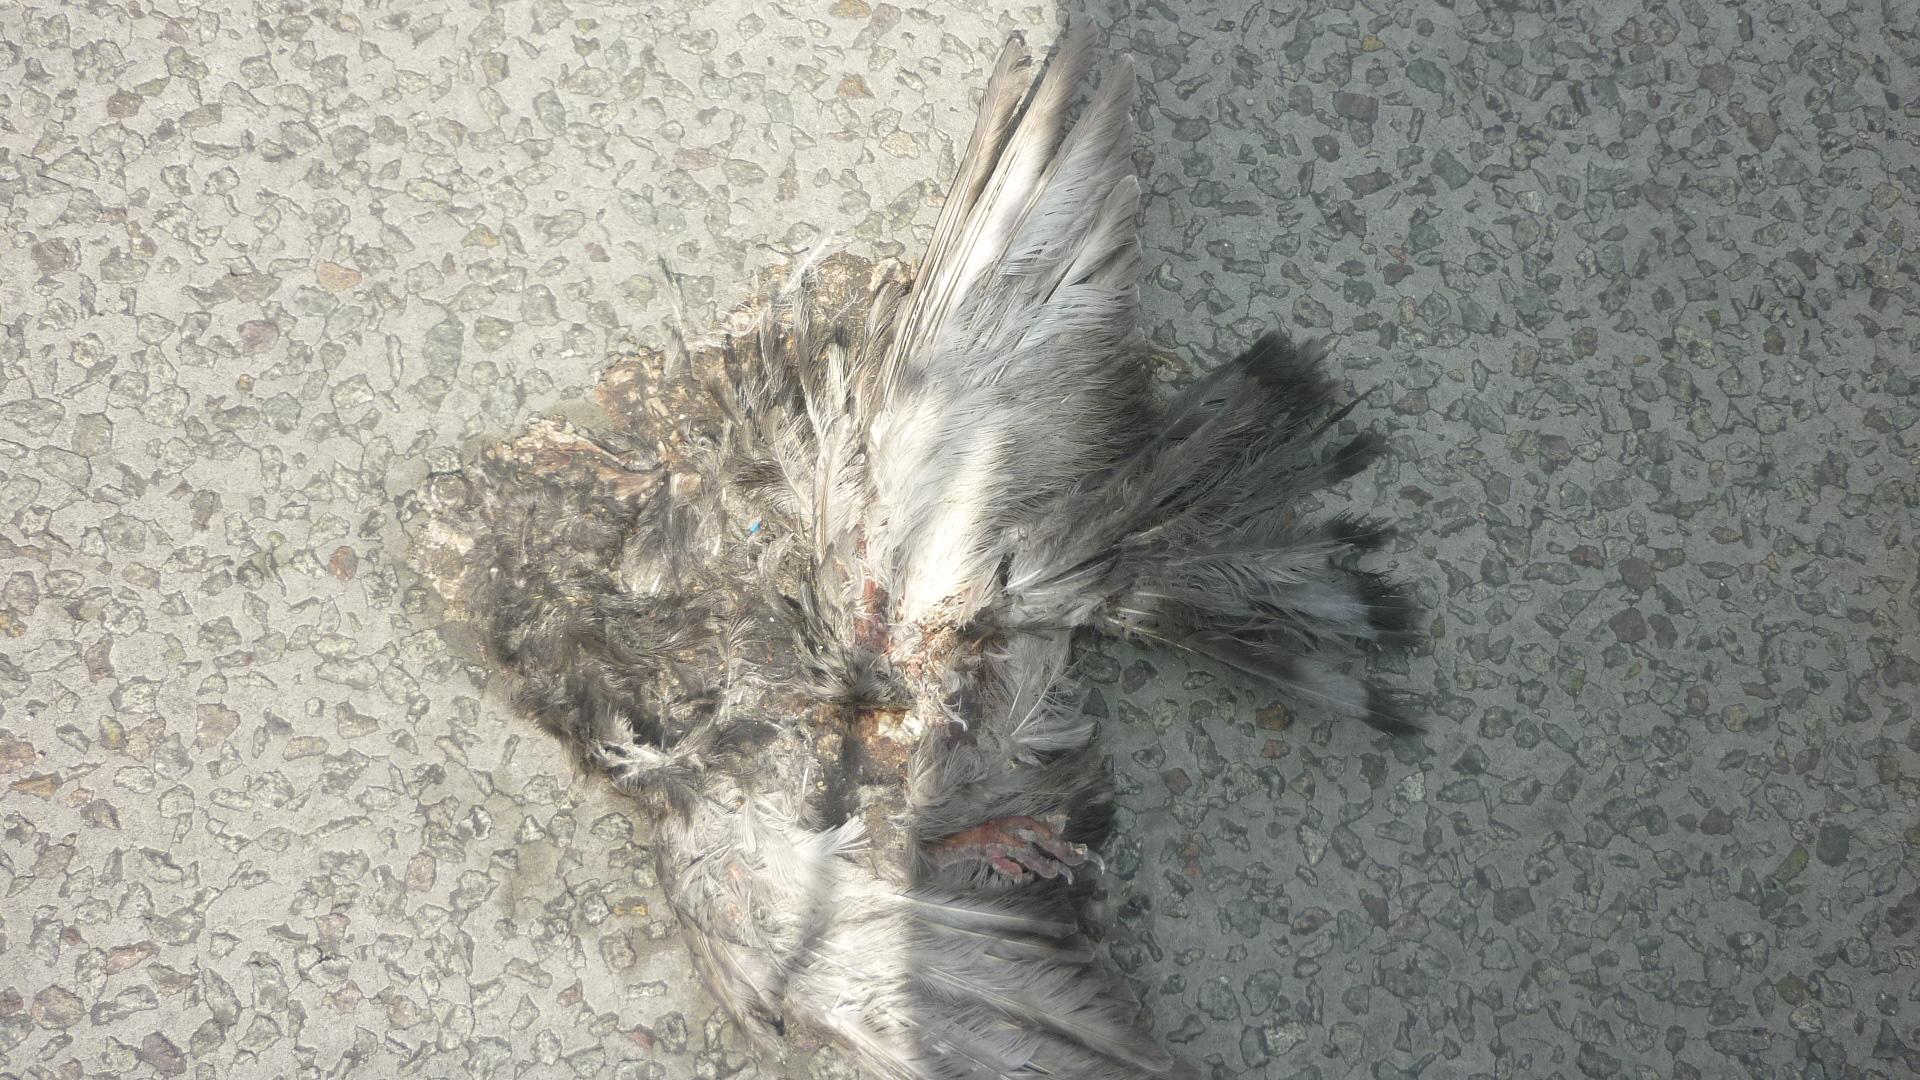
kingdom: Animalia
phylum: Chordata
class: Aves
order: Columbiformes
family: Columbidae
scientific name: Columbidae
